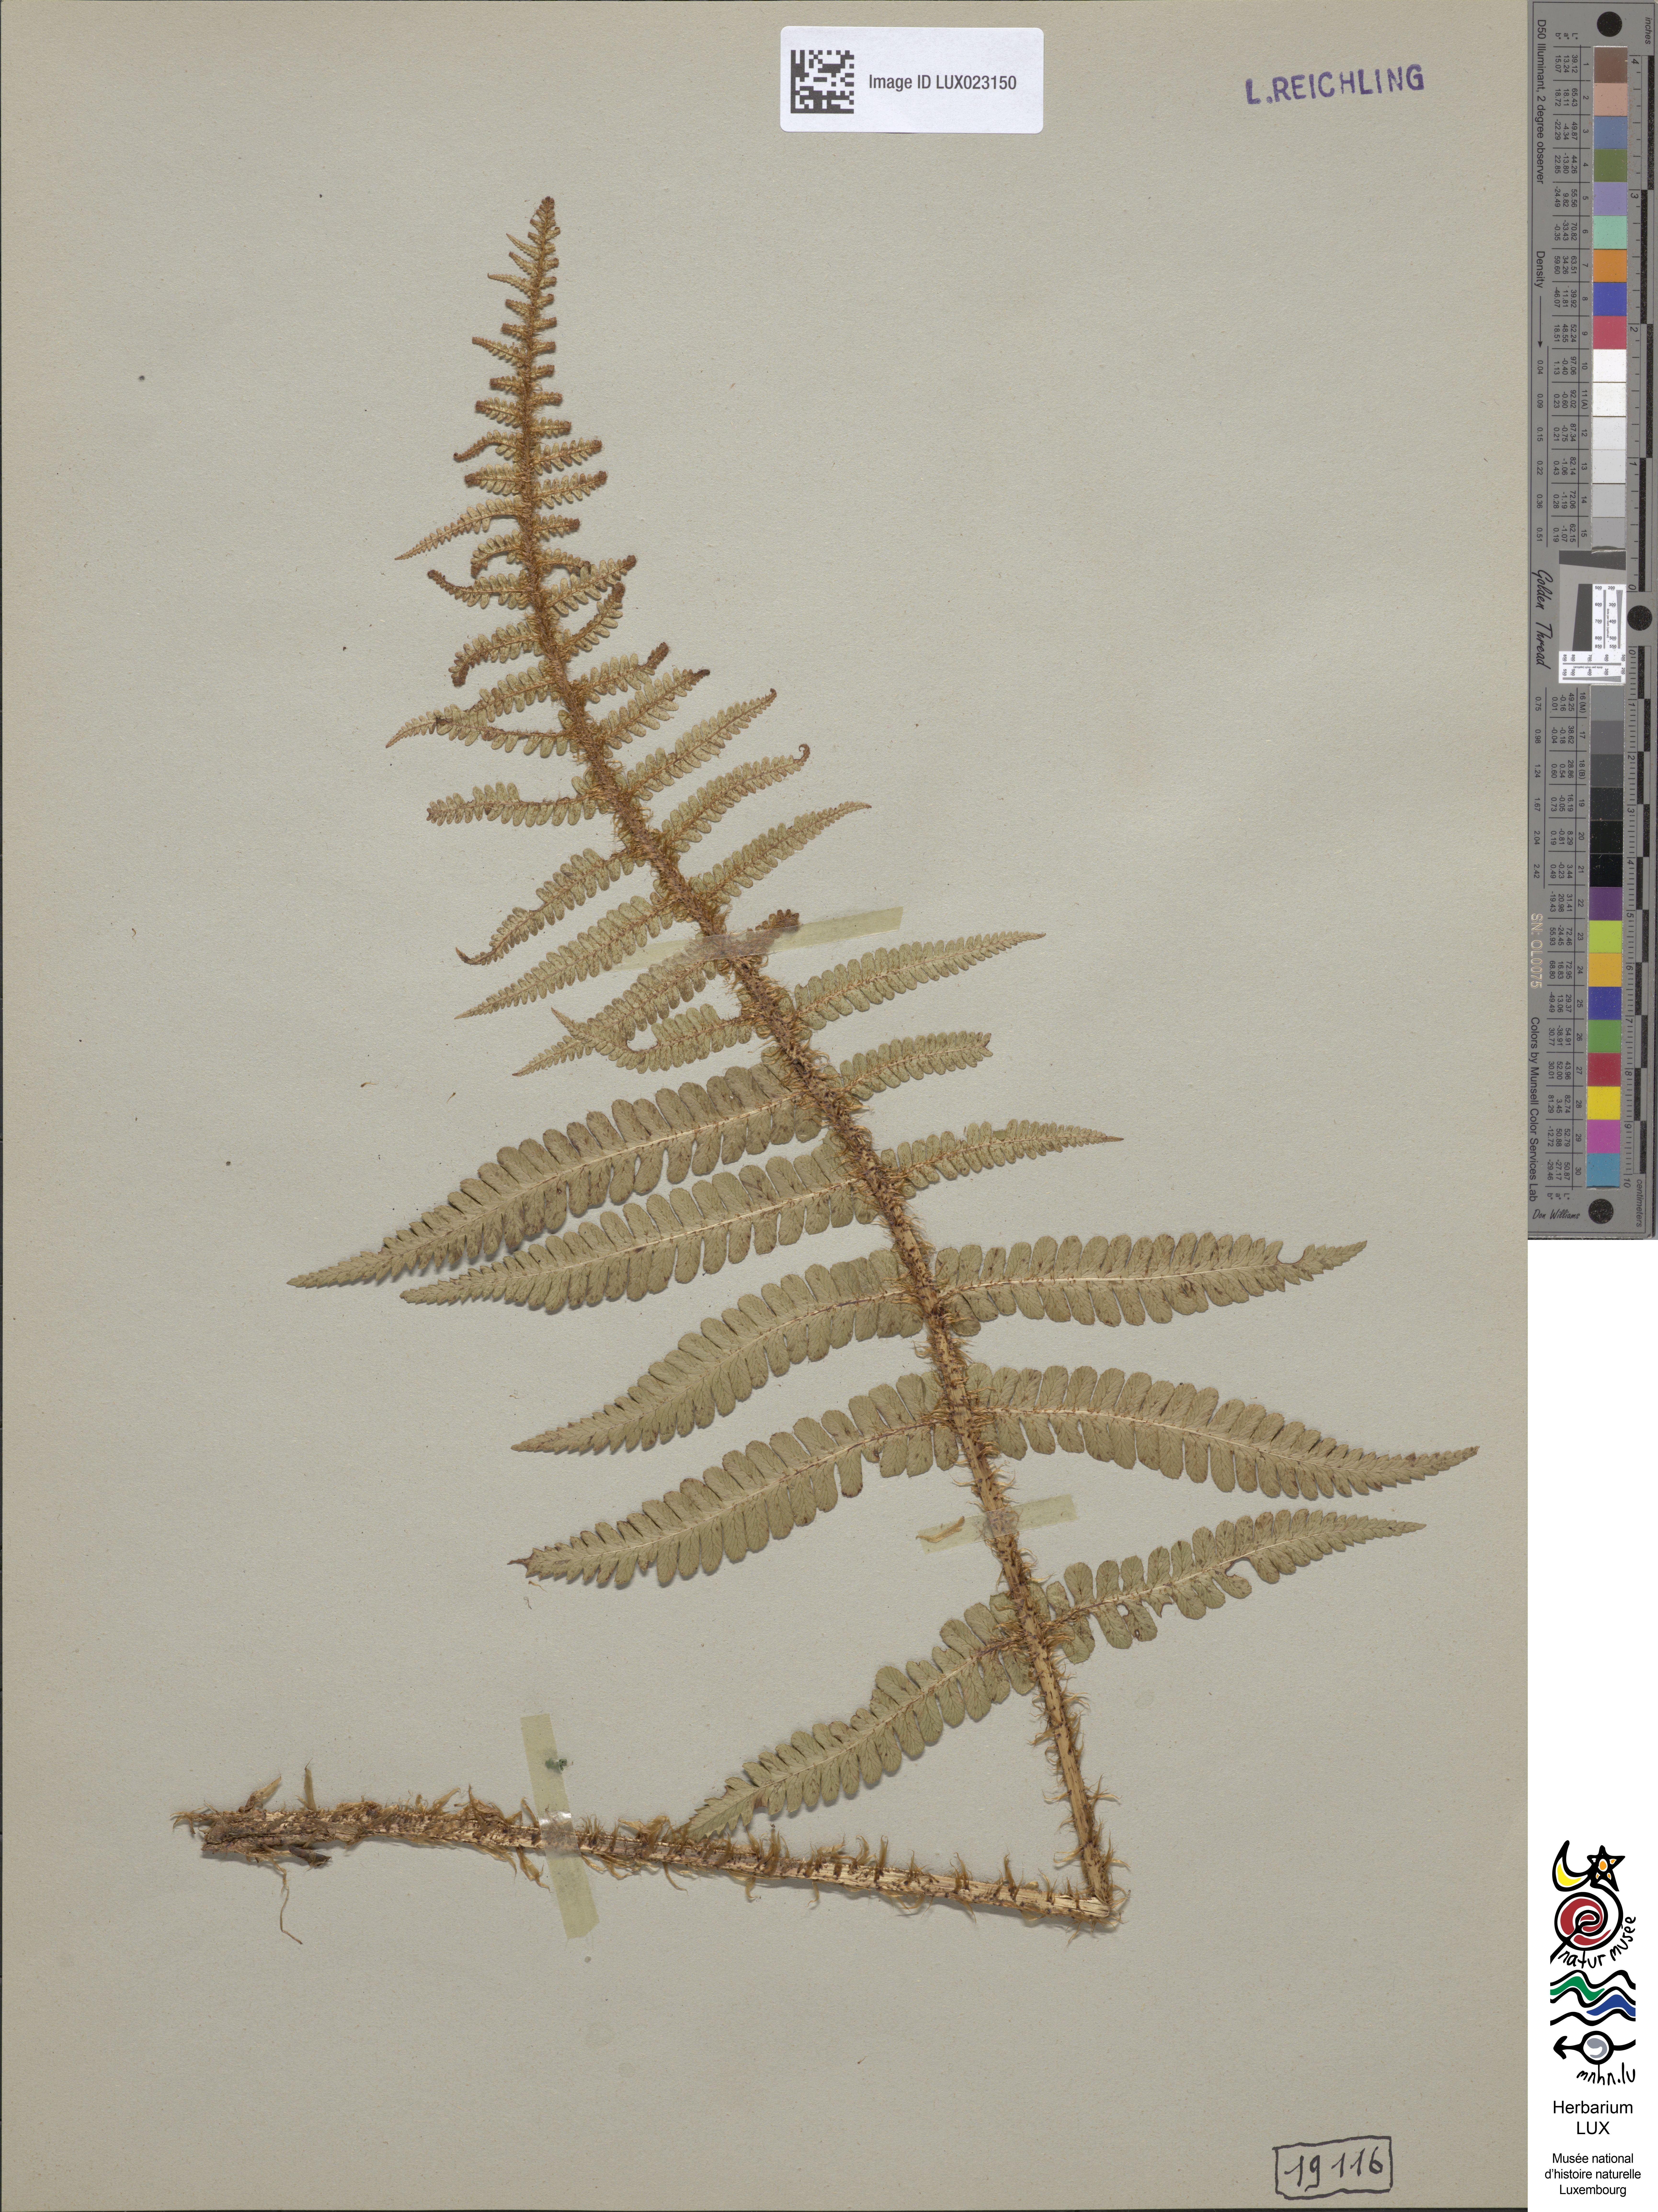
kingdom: Plantae
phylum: Tracheophyta
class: Polypodiopsida
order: Polypodiales
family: Dryopteridaceae
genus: Dryopteris
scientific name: Dryopteris borreri
